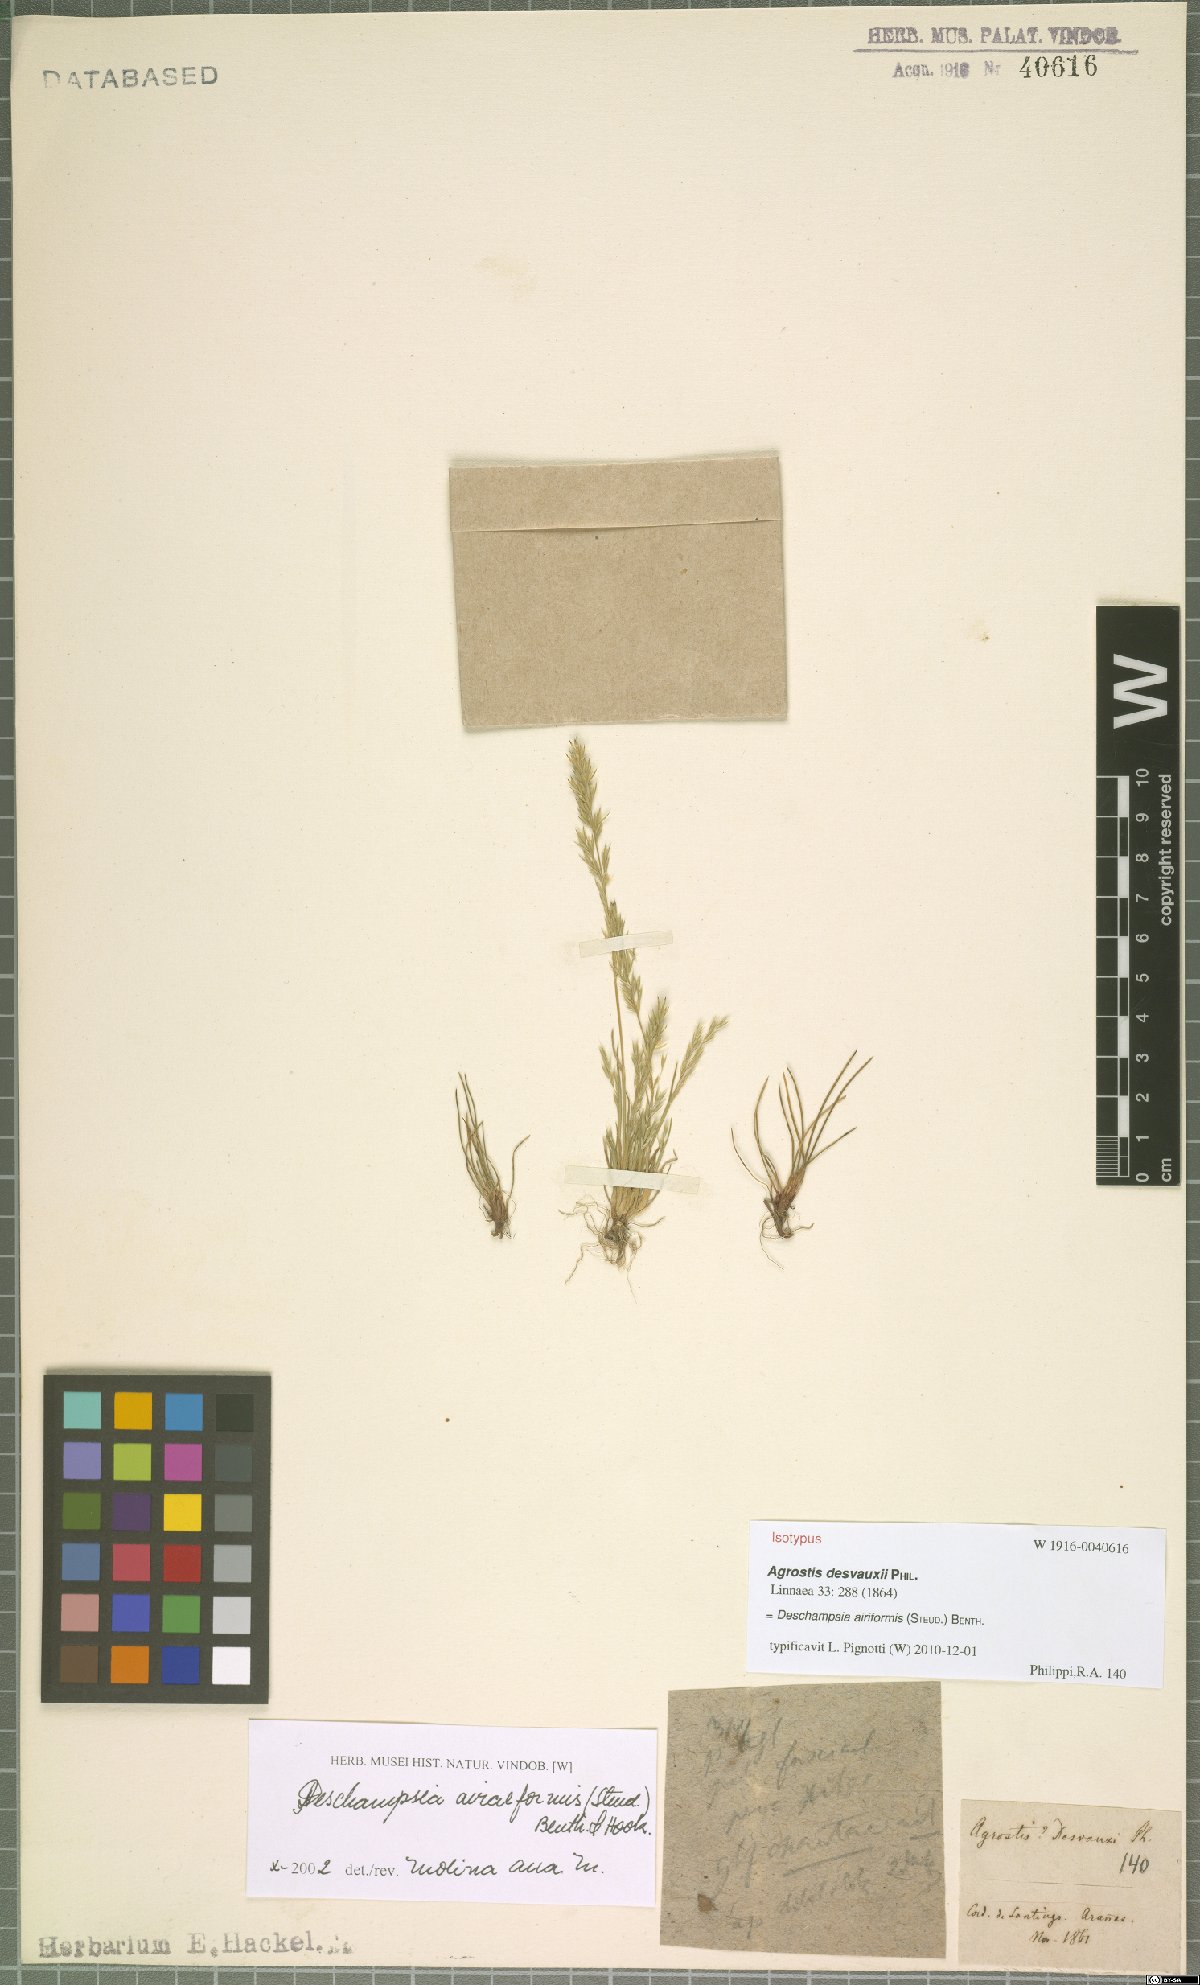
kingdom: Plantae
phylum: Tracheophyta
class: Liliopsida
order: Poales
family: Poaceae
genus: Deschampsia
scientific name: Deschampsia airiformis
